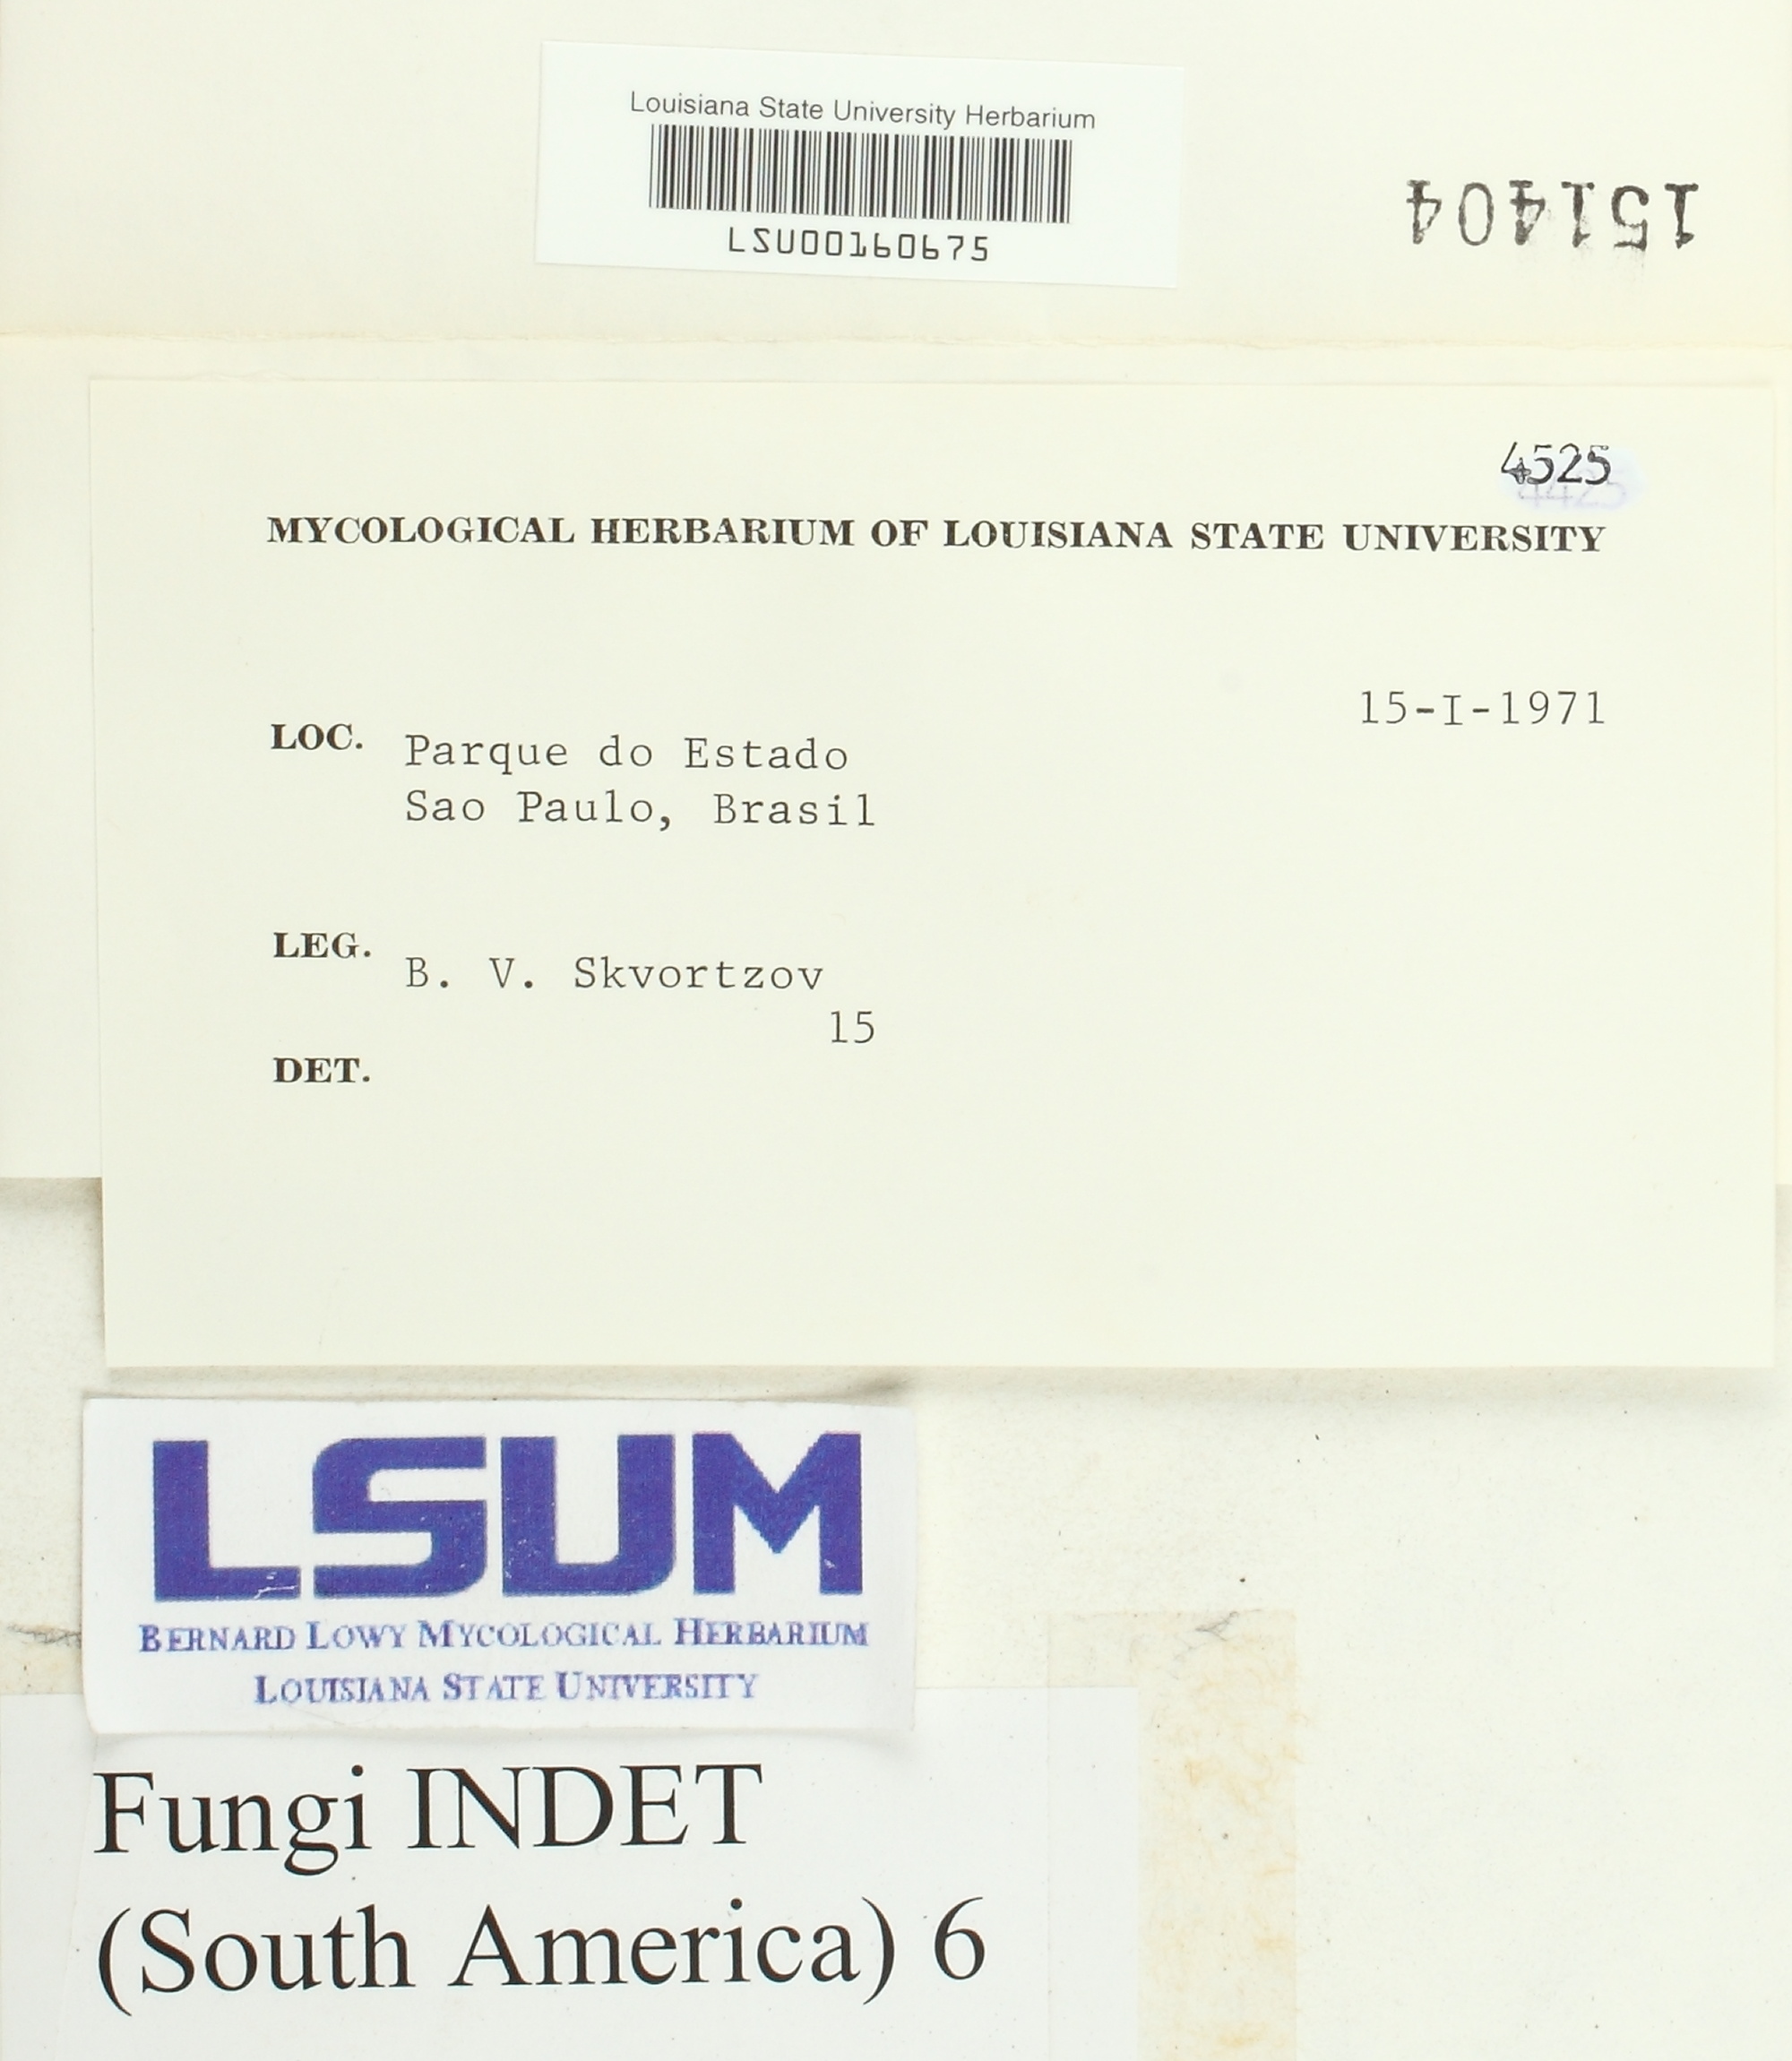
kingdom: Fungi
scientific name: Fungi
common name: Fungi
